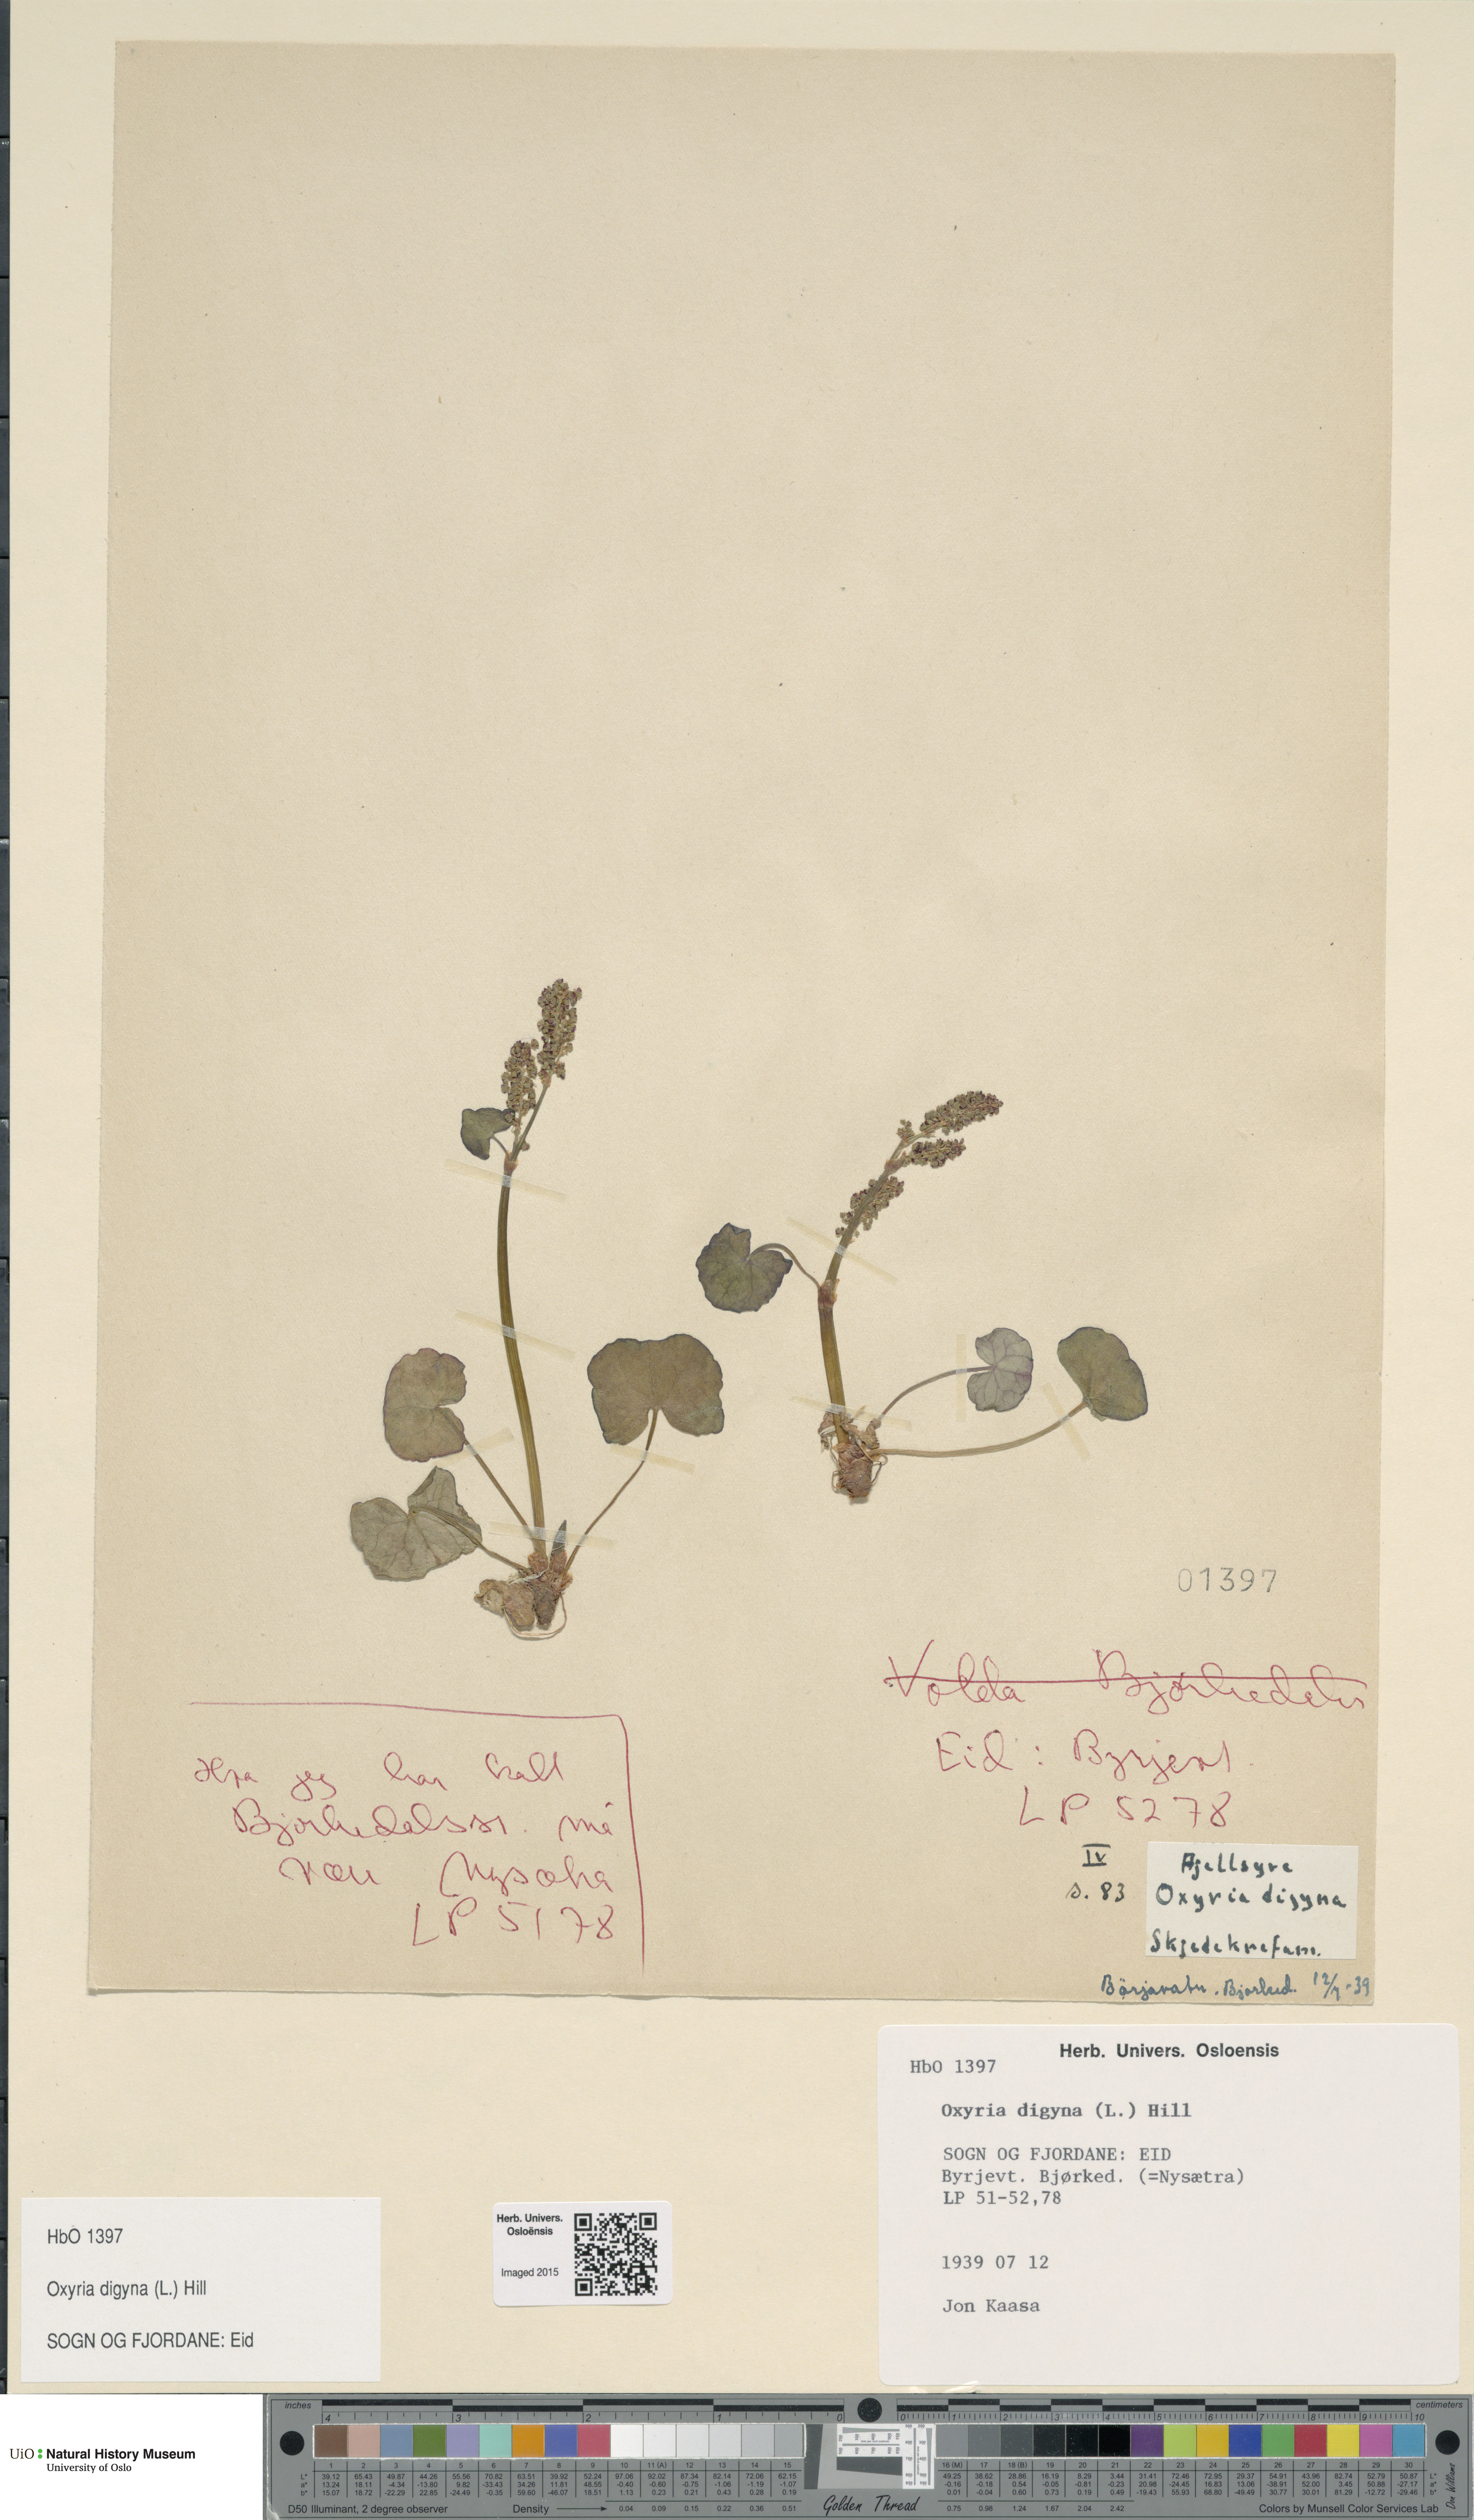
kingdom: Plantae
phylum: Tracheophyta
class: Magnoliopsida
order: Caryophyllales
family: Polygonaceae
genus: Oxyria
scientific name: Oxyria digyna
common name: Alpine mountain-sorrel
